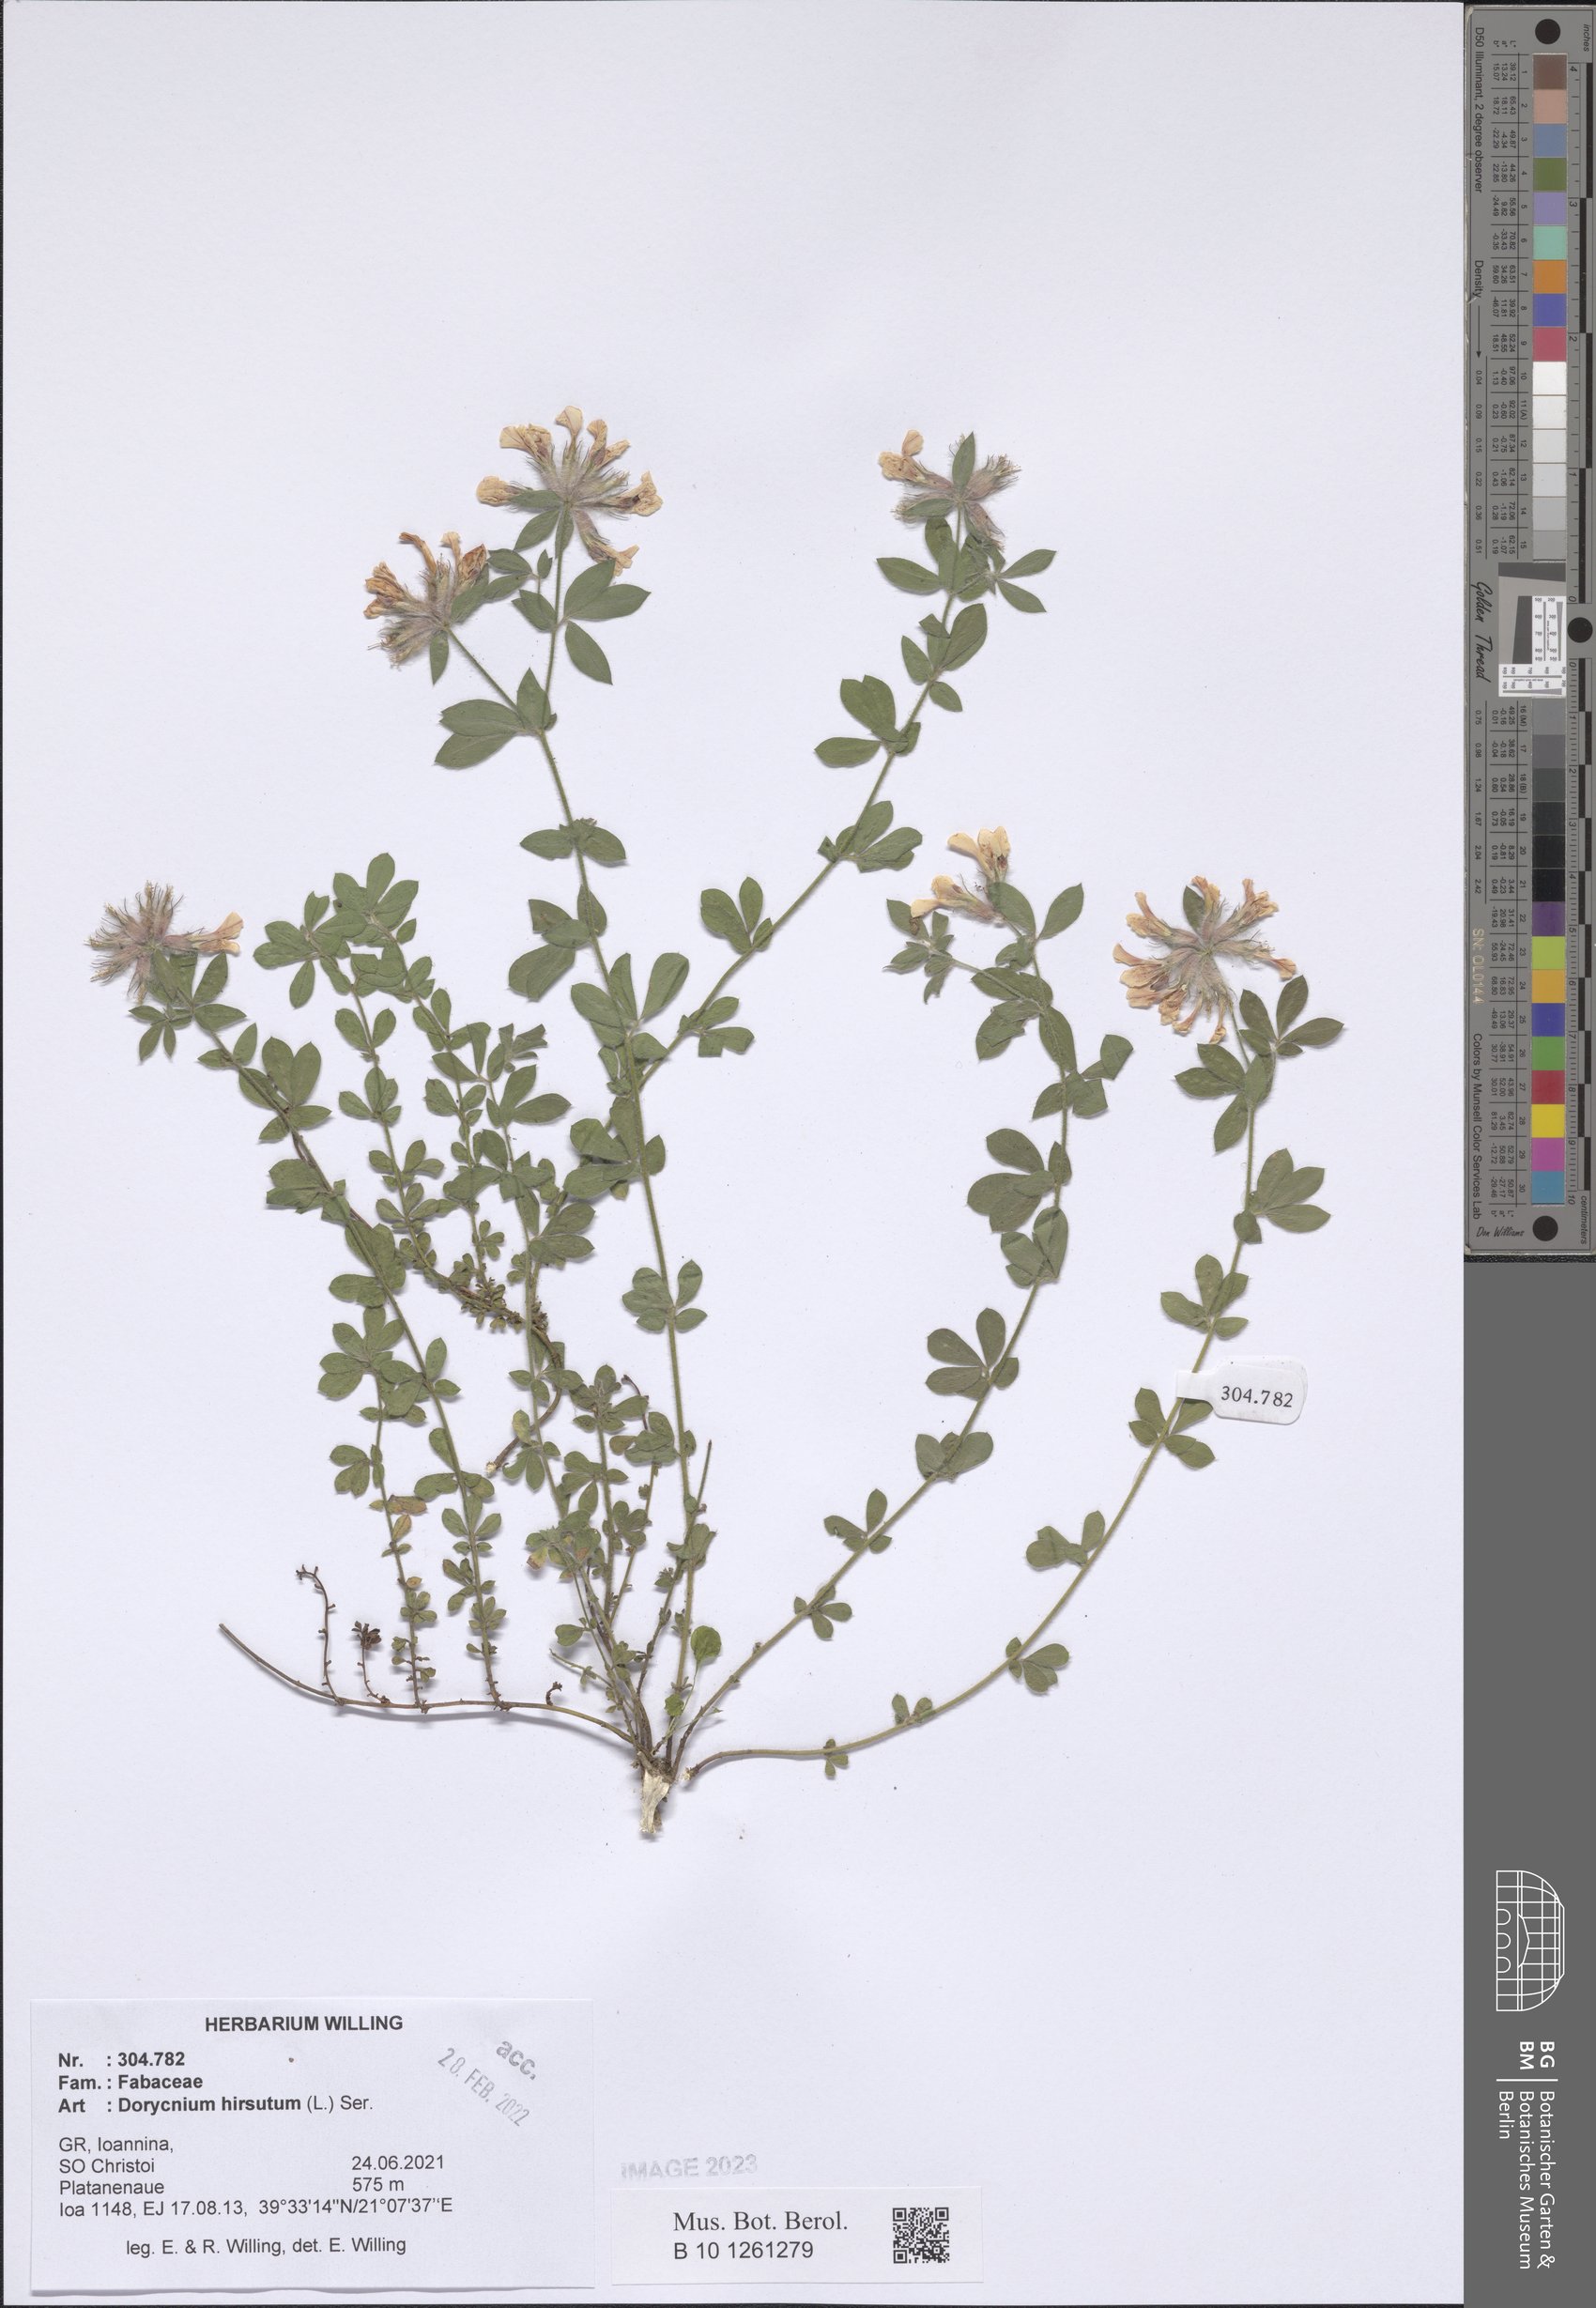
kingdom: Plantae
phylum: Tracheophyta
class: Magnoliopsida
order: Fabales
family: Fabaceae
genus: Lotus
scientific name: Lotus hirsutus
